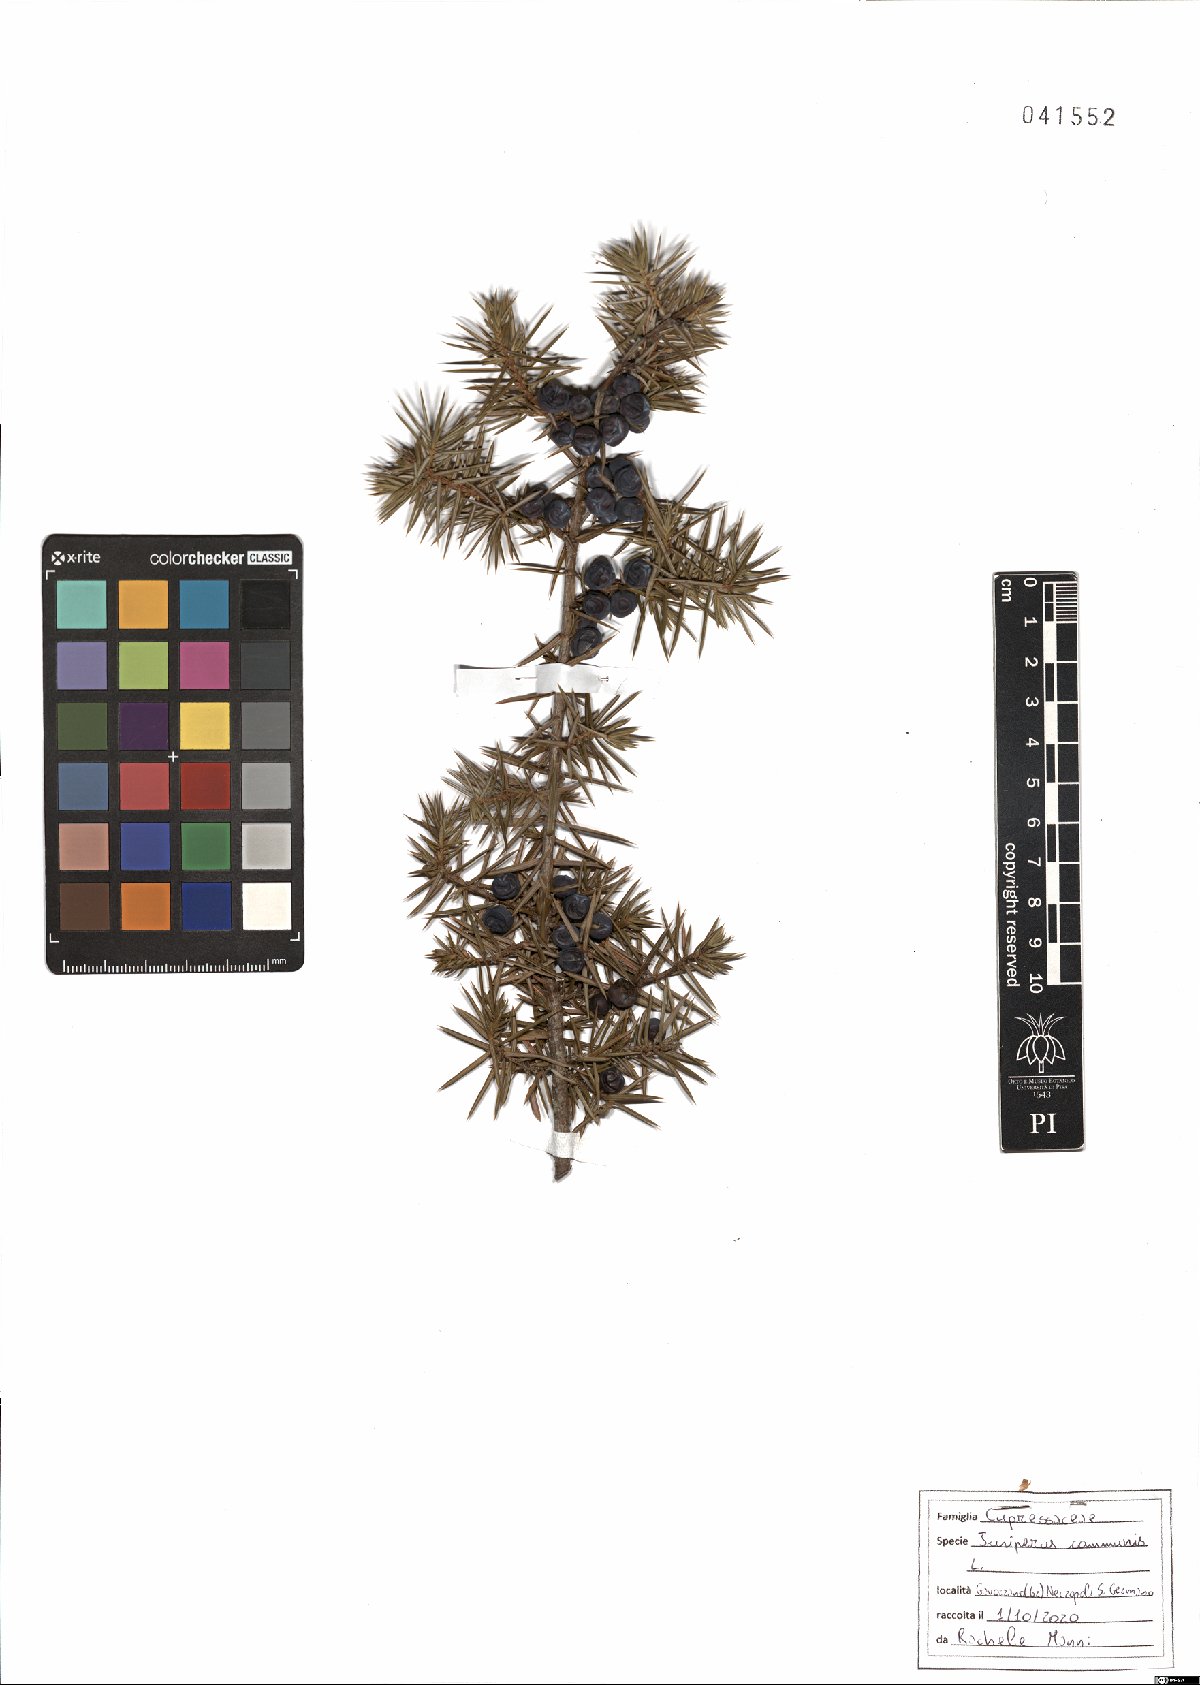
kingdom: Plantae
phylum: Tracheophyta
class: Pinopsida
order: Pinales
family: Cupressaceae
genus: Juniperus
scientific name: Juniperus communis
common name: Common juniper
